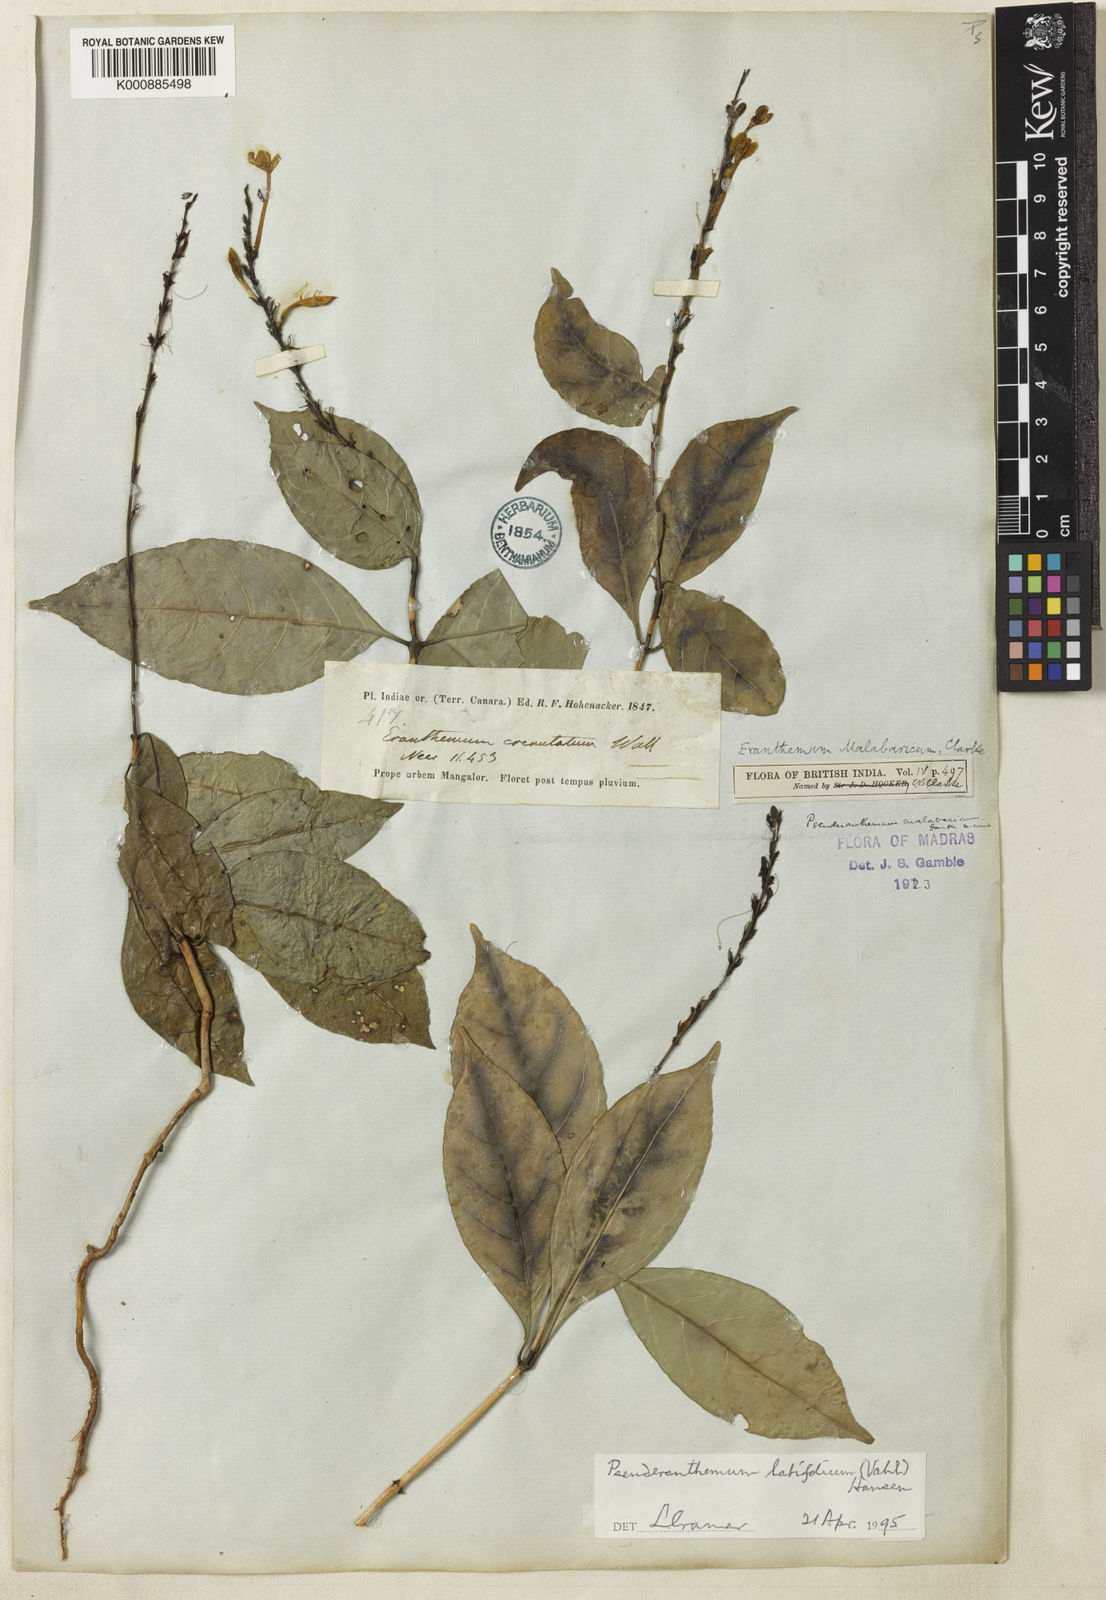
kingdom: Plantae
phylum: Tracheophyta
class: Magnoliopsida
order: Lamiales
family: Acanthaceae
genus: Pseuderanthemum
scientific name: Pseuderanthemum malabaricum
